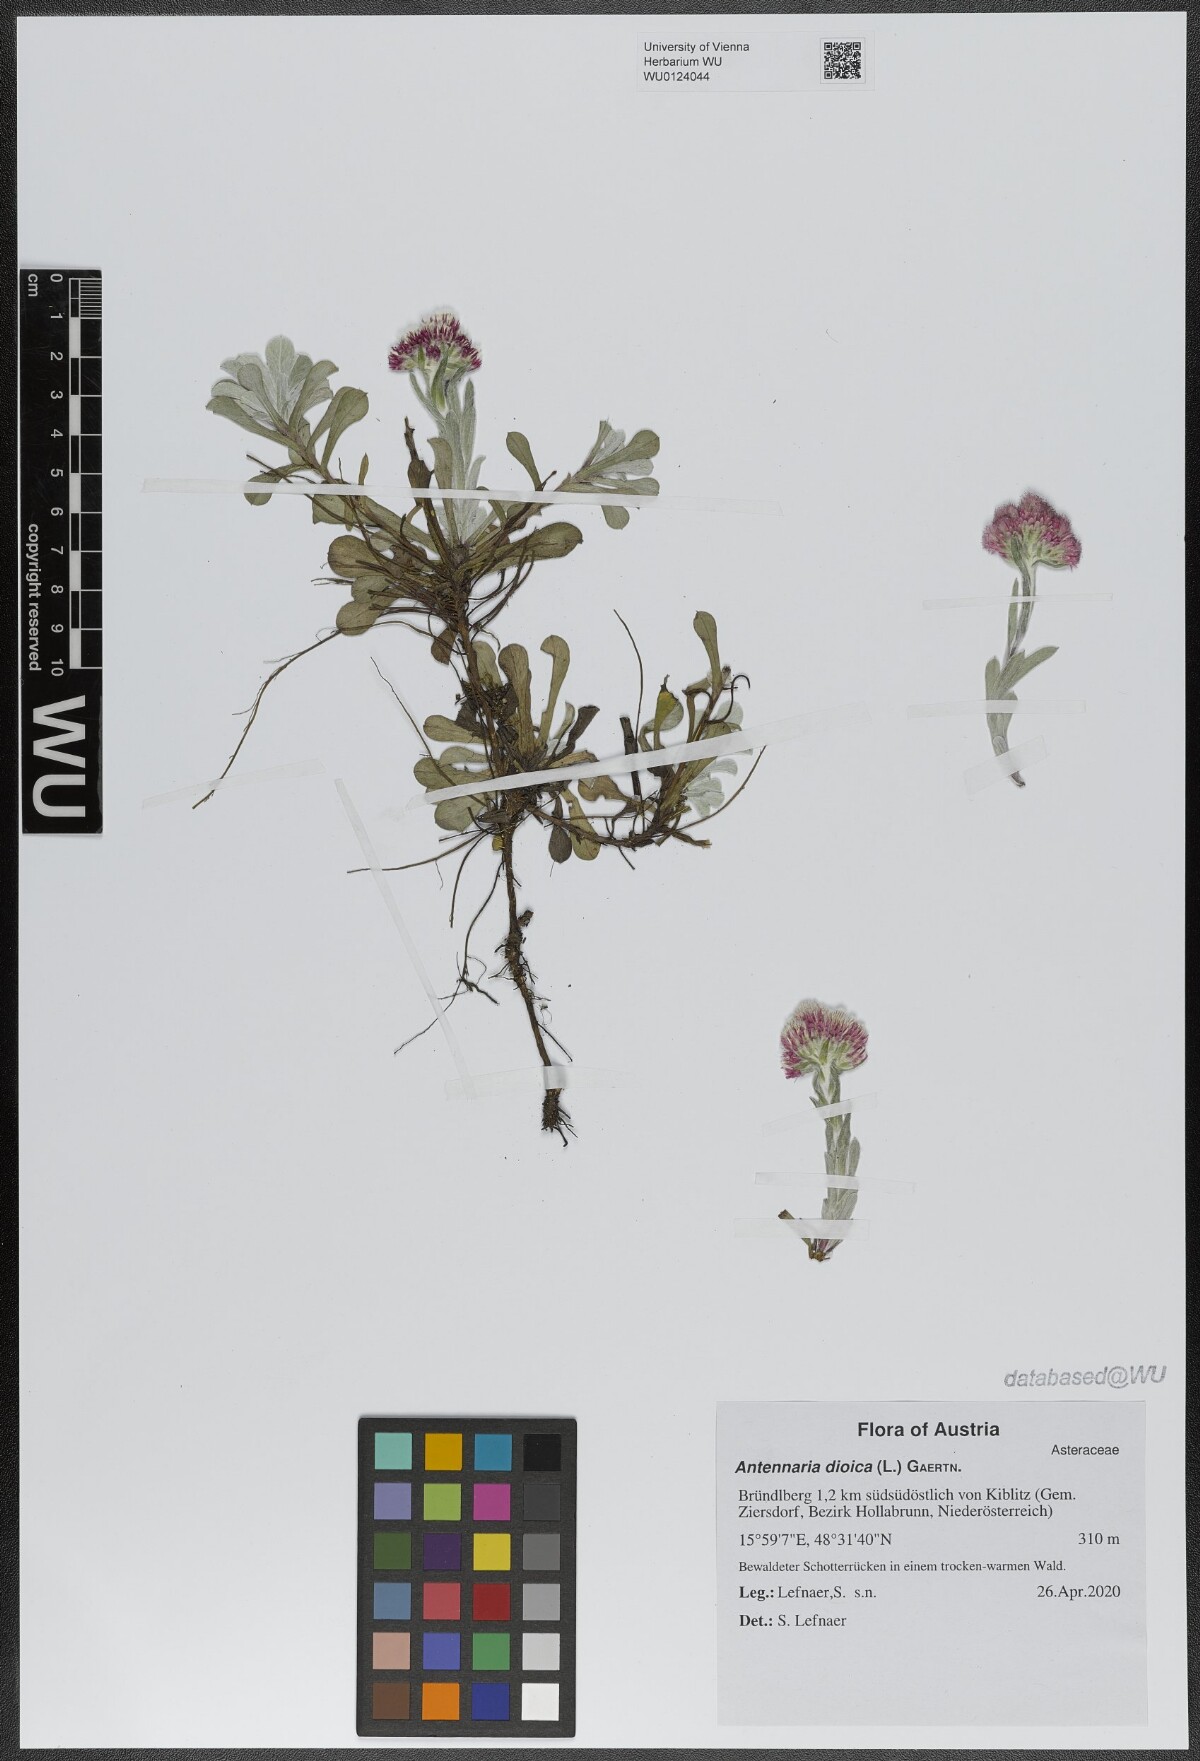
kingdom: Plantae
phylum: Tracheophyta
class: Magnoliopsida
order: Asterales
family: Asteraceae
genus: Antennaria
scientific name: Antennaria dioica
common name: Mountain everlasting
